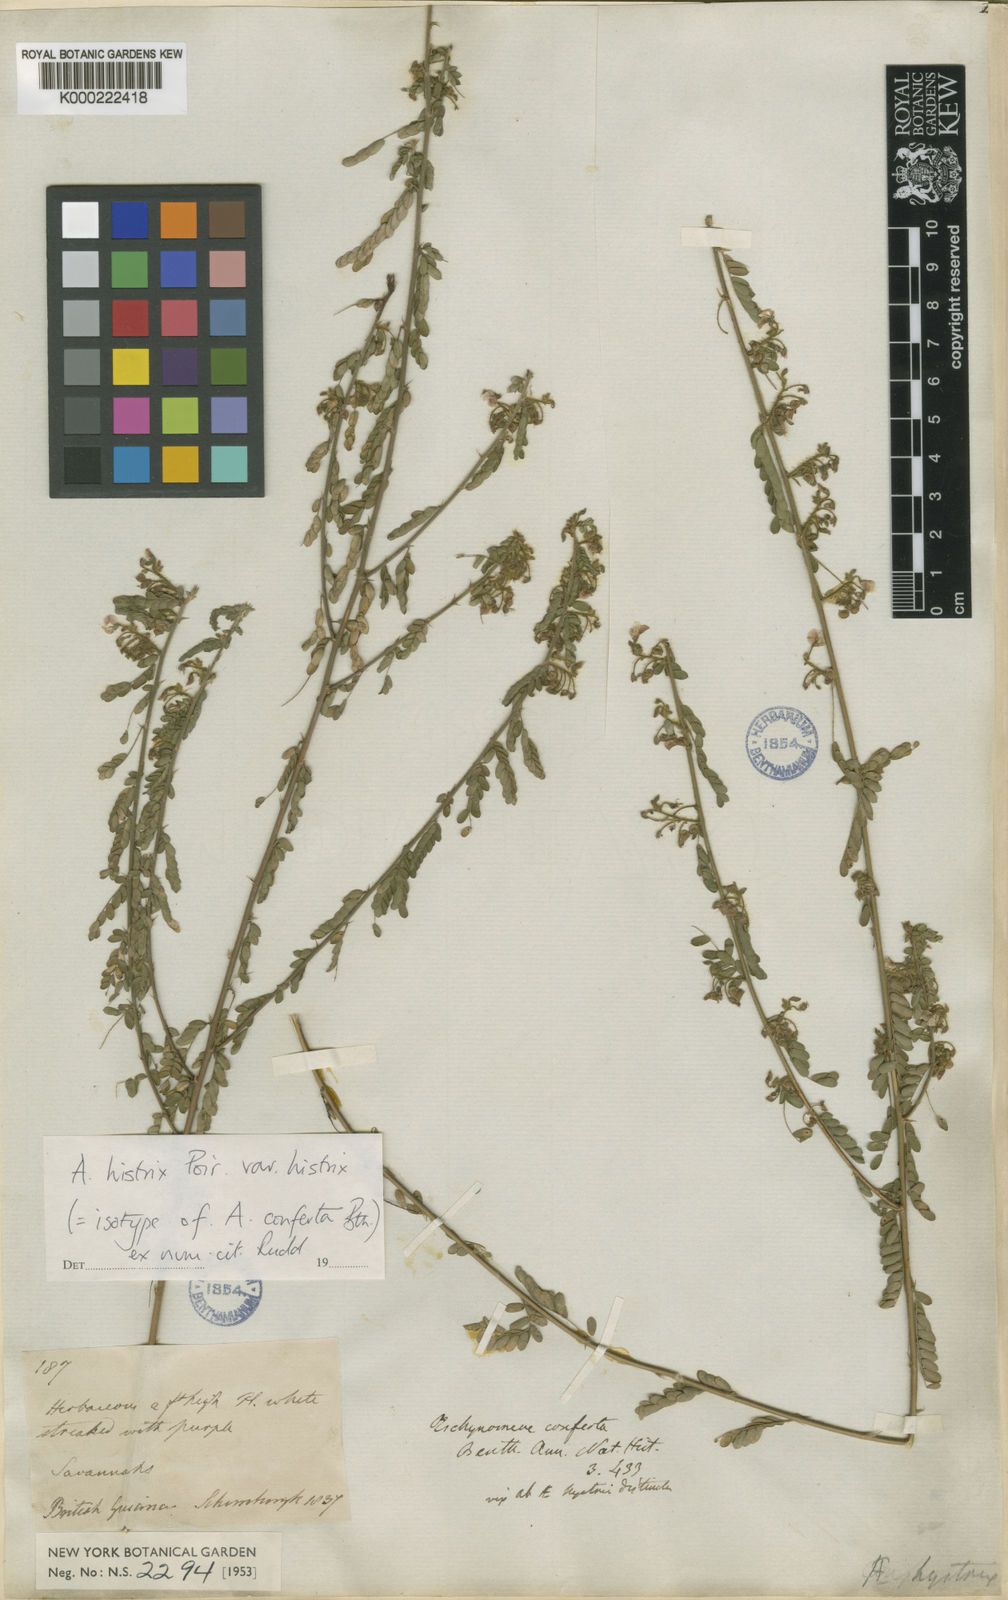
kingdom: Plantae
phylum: Tracheophyta
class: Magnoliopsida
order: Fabales
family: Fabaceae
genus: Ctenodon
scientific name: Ctenodon histrix
